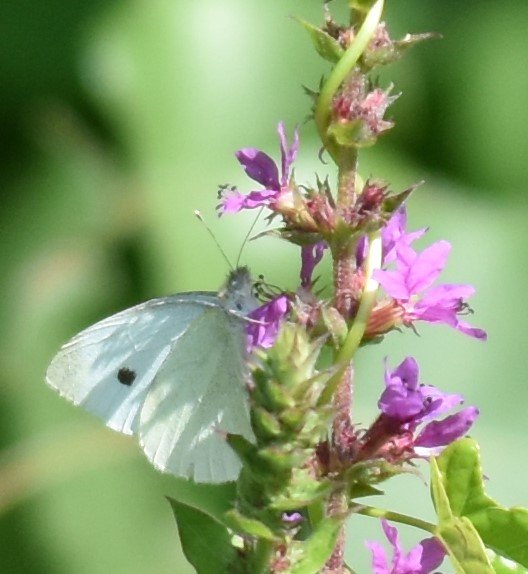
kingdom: Animalia
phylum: Arthropoda
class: Insecta
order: Lepidoptera
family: Pieridae
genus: Pieris
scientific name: Pieris rapae
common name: Cabbage White
